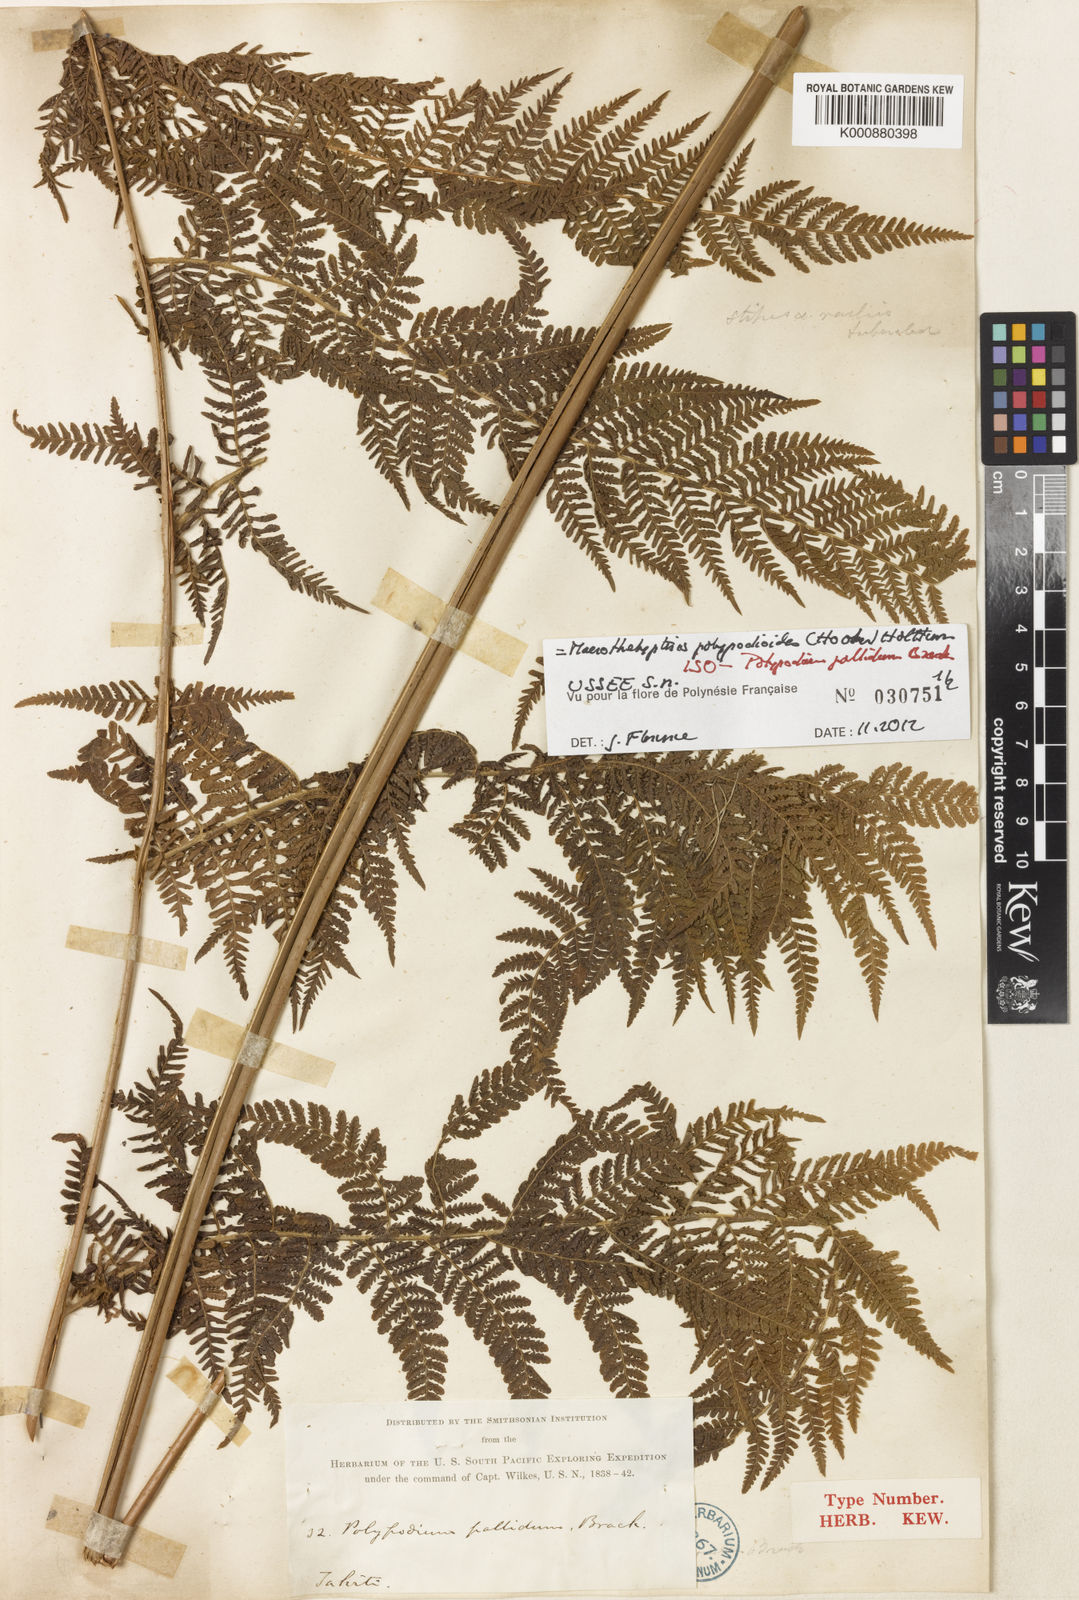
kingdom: Plantae
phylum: Tracheophyta
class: Polypodiopsida
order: Polypodiales
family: Thelypteridaceae
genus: Macrothelypteris
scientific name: Macrothelypteris polypodioides
